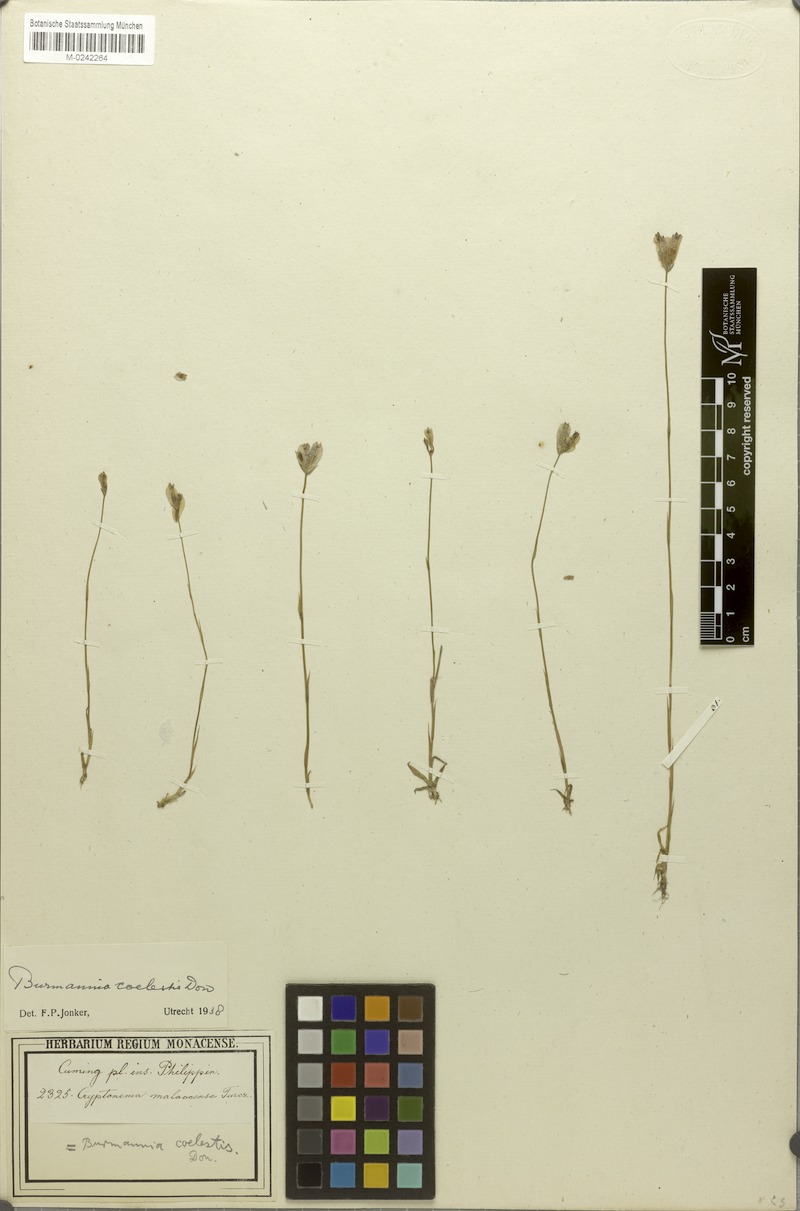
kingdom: Plantae
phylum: Tracheophyta
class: Liliopsida
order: Dioscoreales
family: Burmanniaceae
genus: Burmannia
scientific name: Burmannia coelestis
